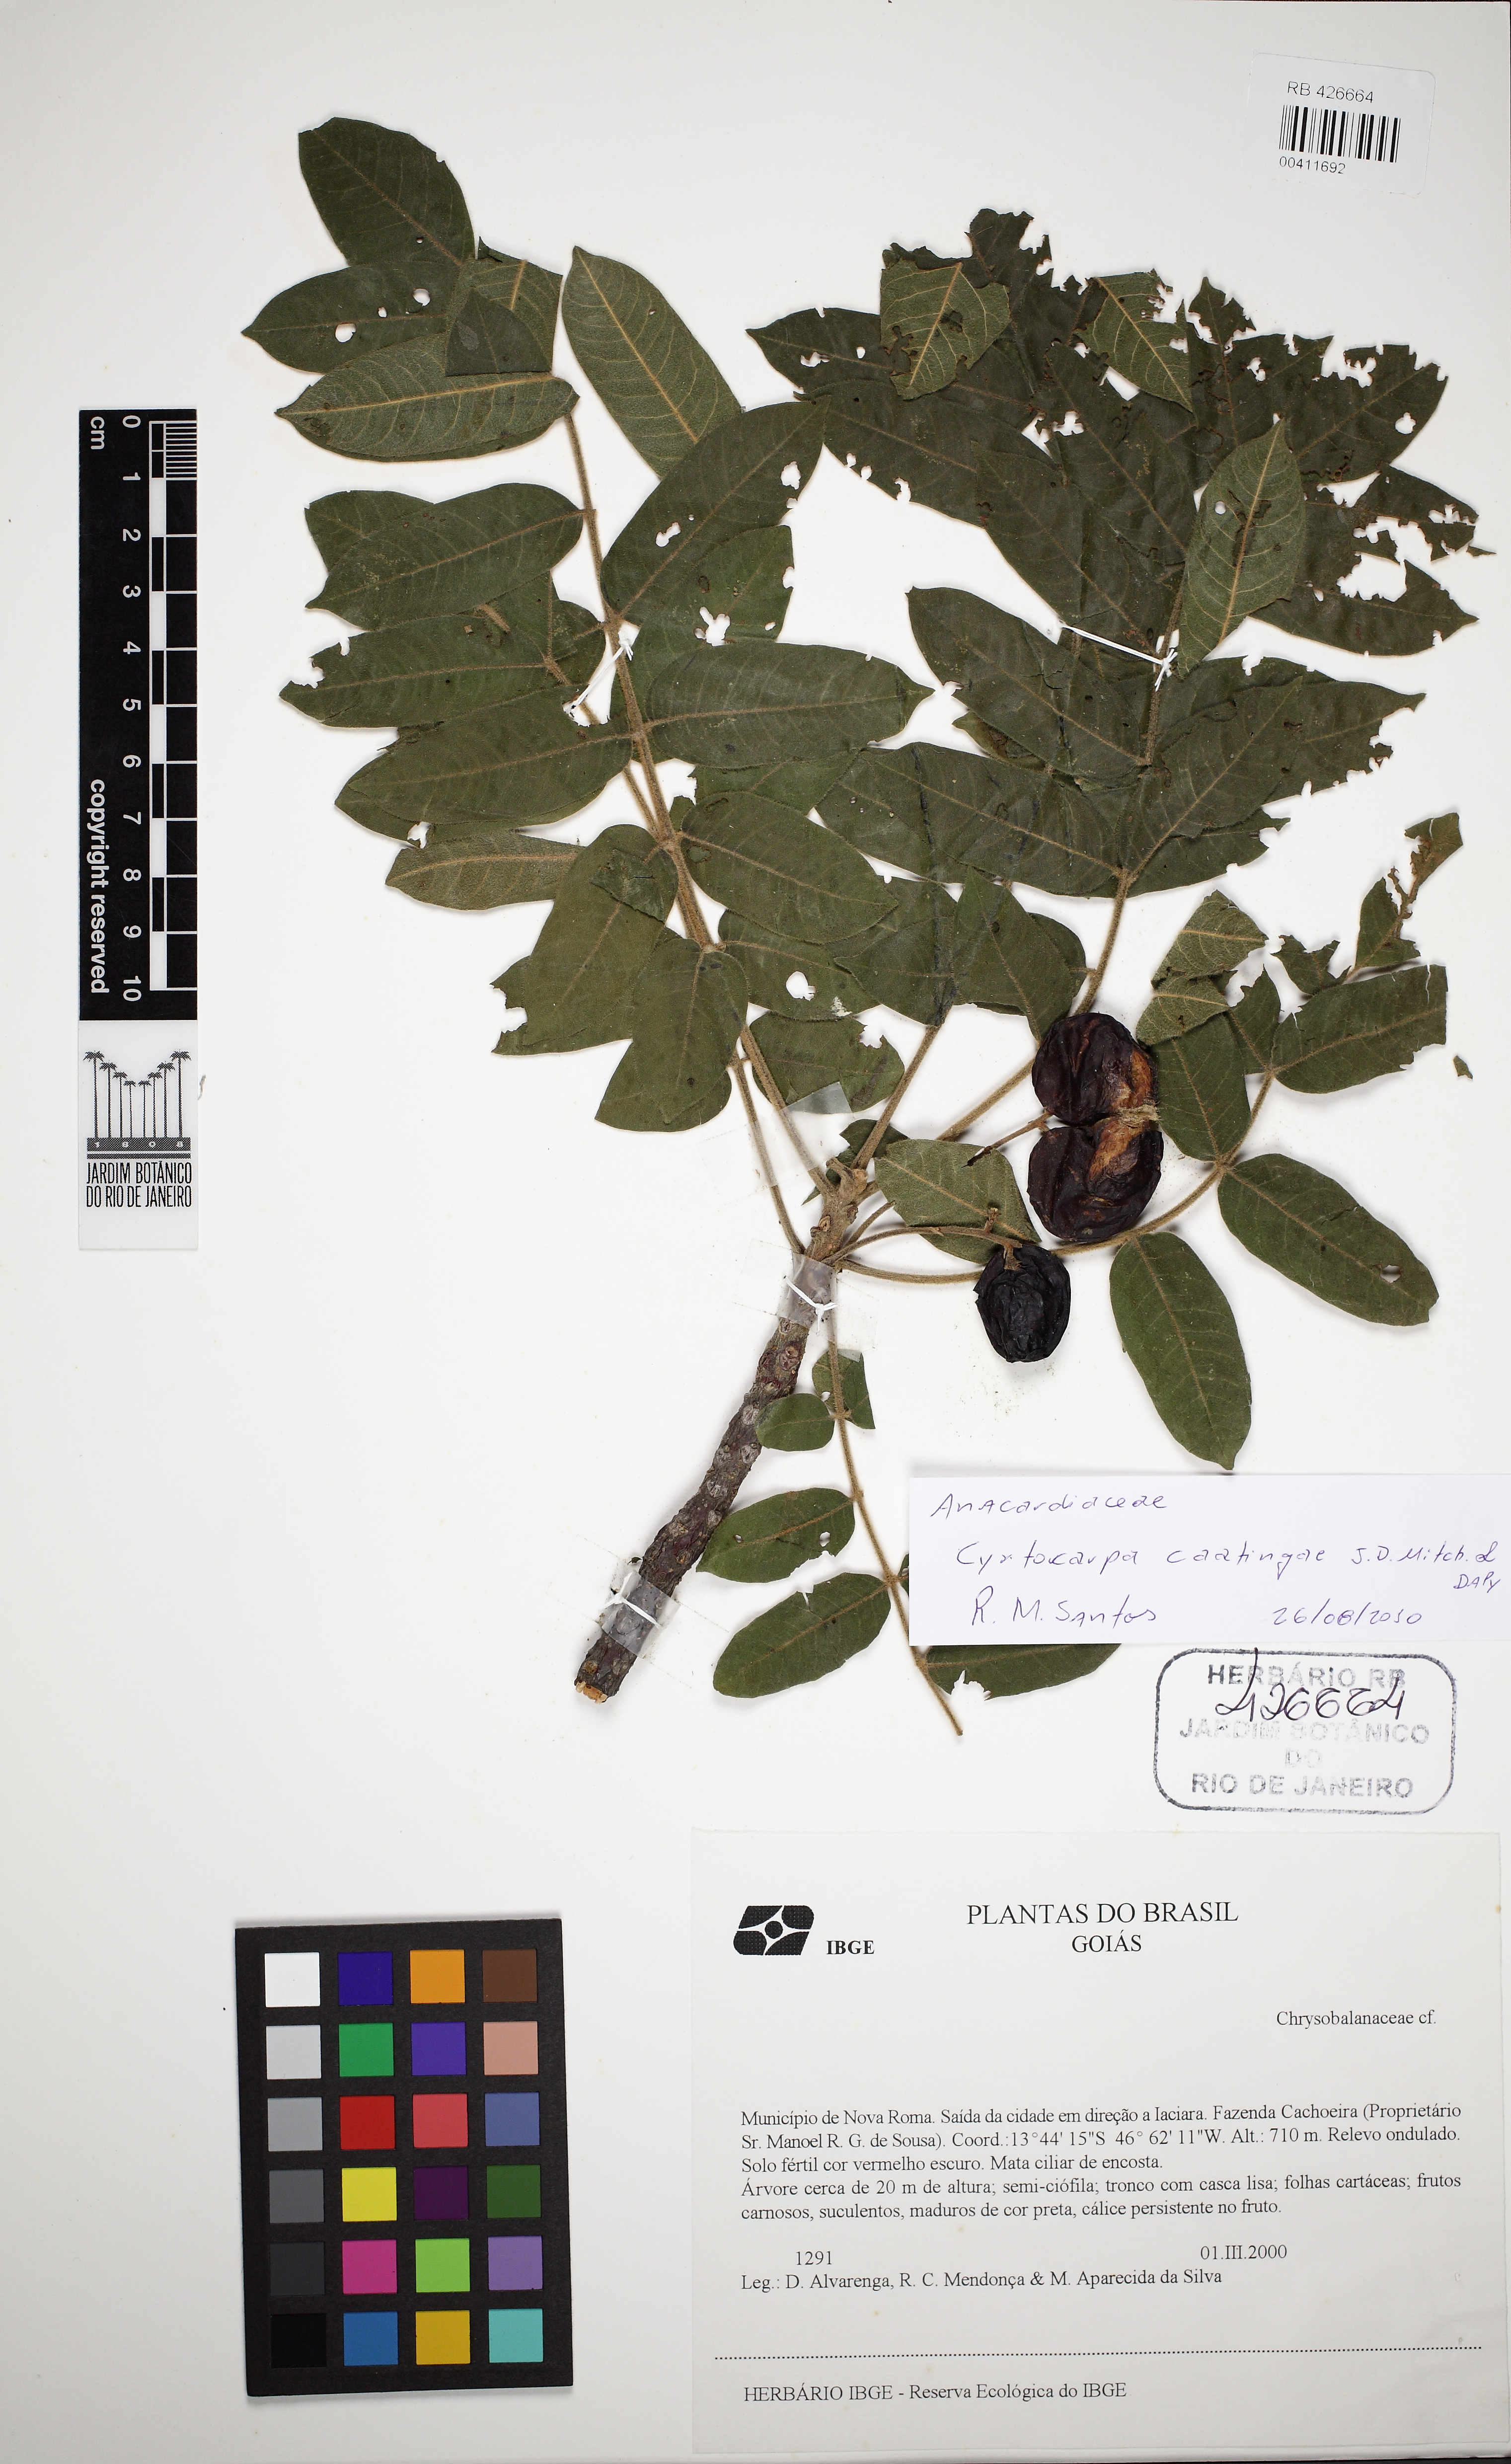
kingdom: Plantae
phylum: Tracheophyta
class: Magnoliopsida
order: Sapindales
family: Anacardiaceae
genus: Cyrtocarpa
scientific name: Cyrtocarpa caatingae
